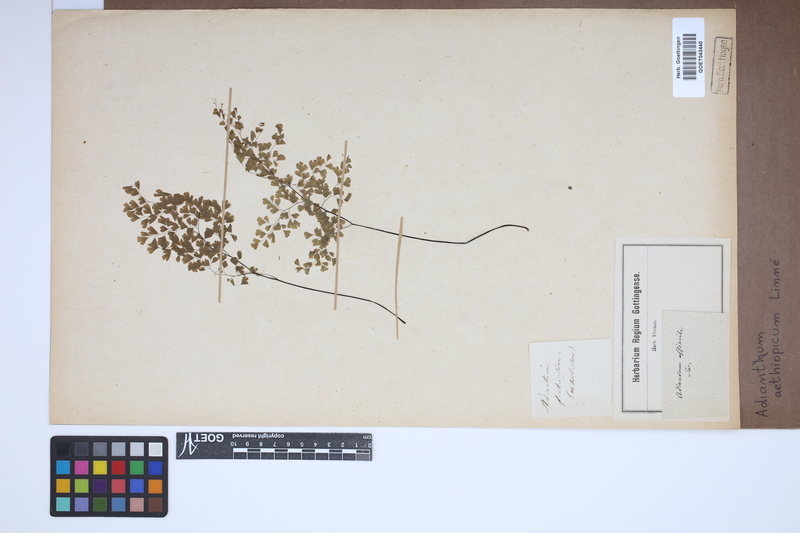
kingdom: Plantae
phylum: Tracheophyta
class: Polypodiopsida
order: Polypodiales
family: Pteridaceae
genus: Adiantum
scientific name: Adiantum aethiopicum
